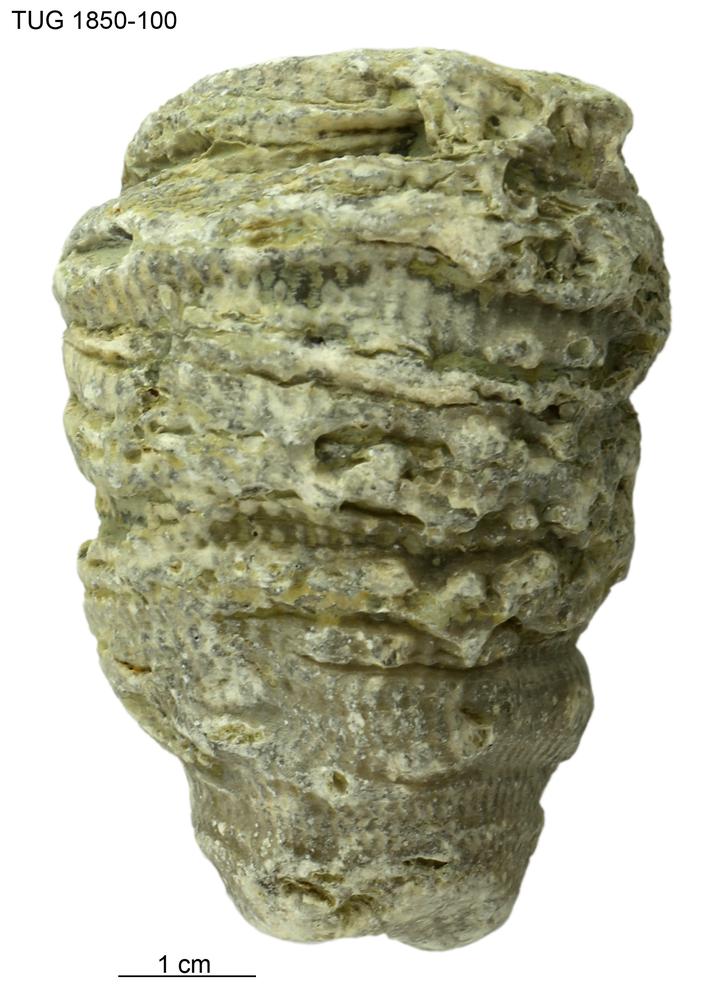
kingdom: Animalia
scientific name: Animalia
